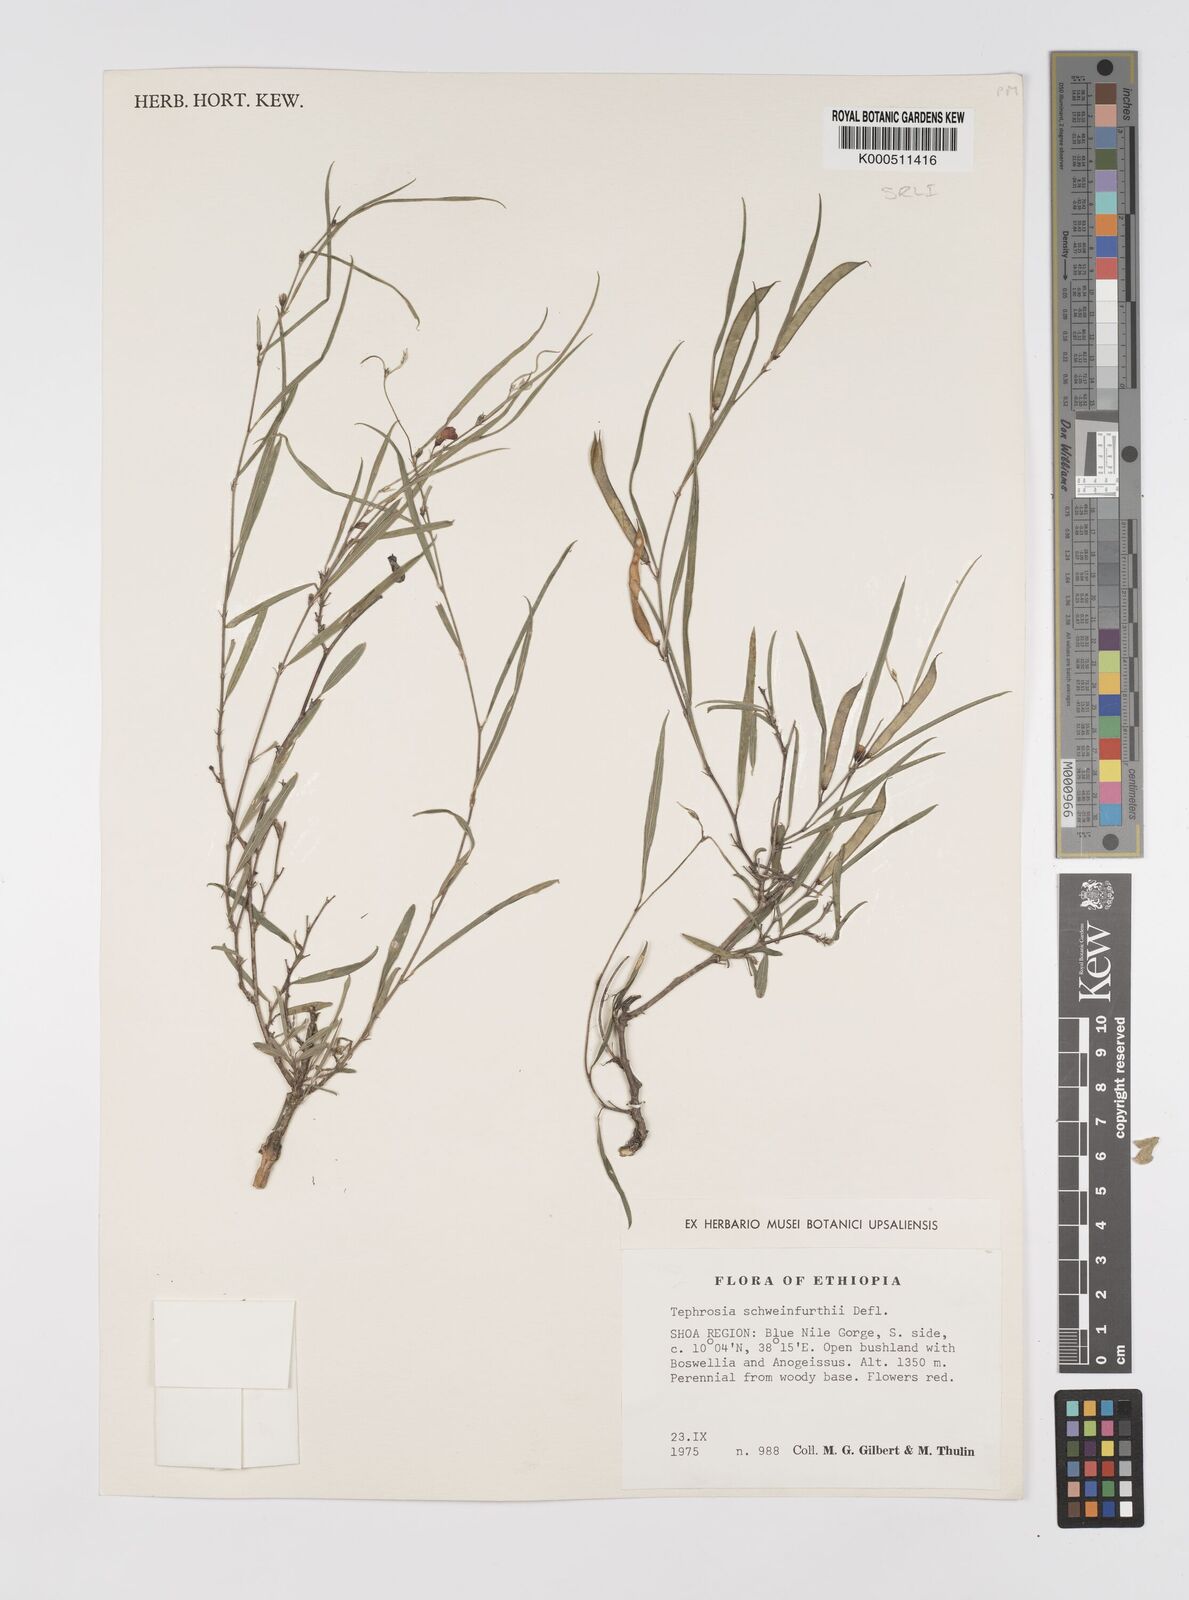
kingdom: Plantae
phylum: Tracheophyta
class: Magnoliopsida
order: Fabales
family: Fabaceae
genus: Tephrosia
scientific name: Tephrosia heterophylla
